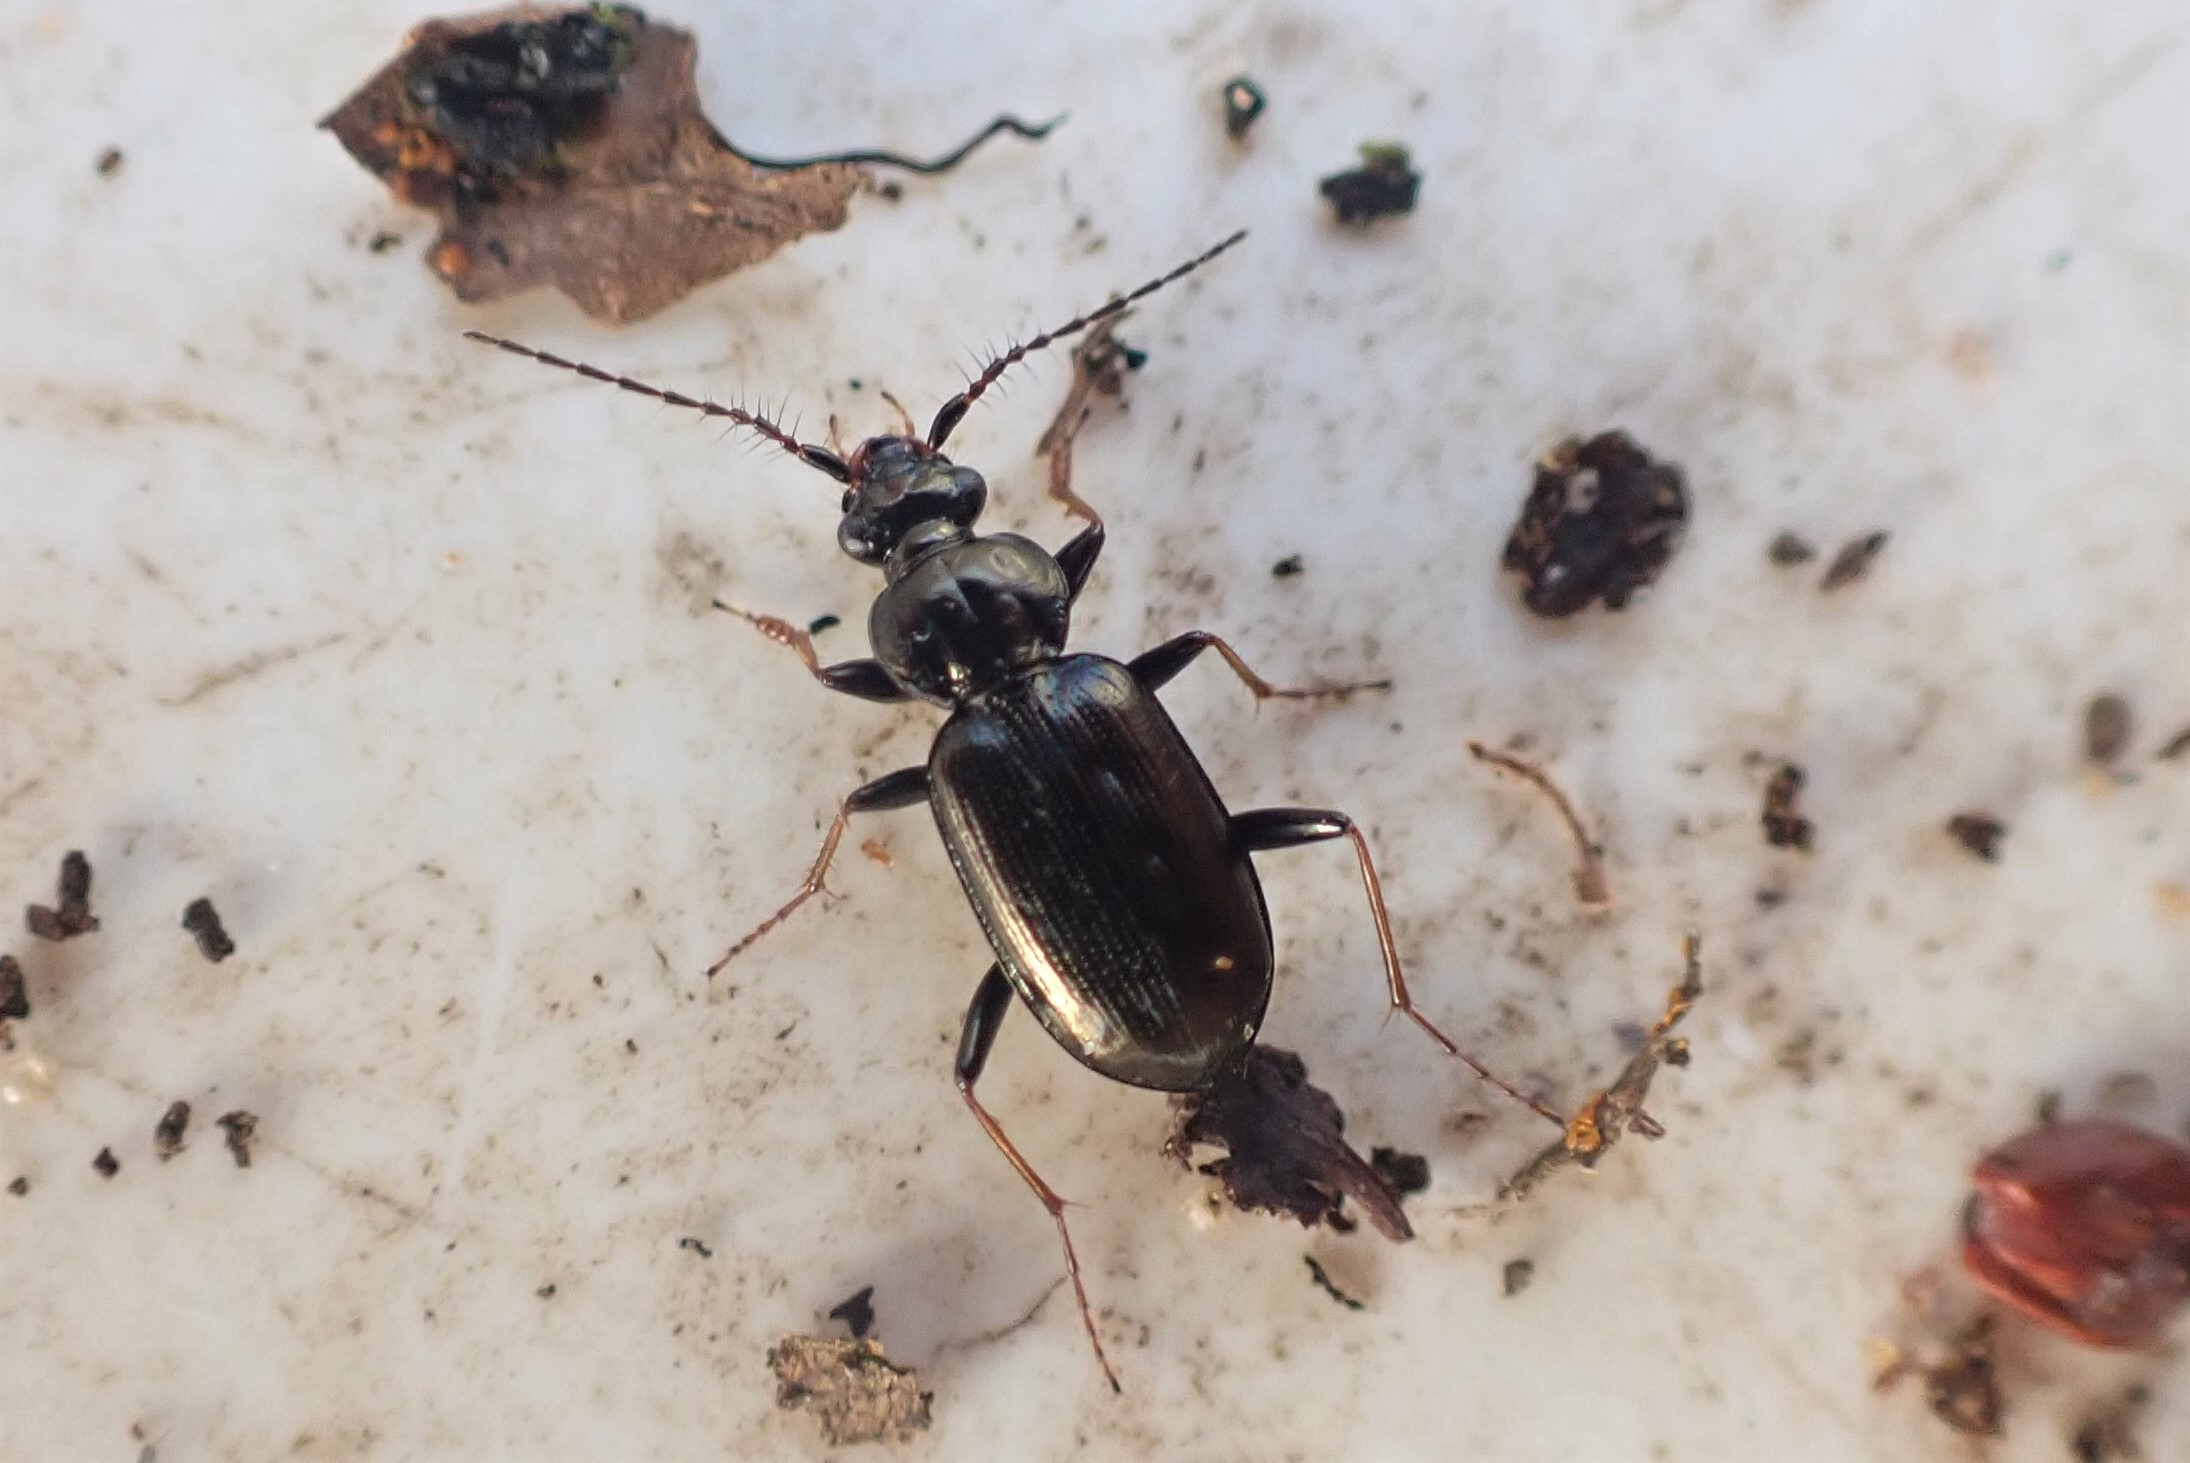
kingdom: Animalia
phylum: Arthropoda
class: Insecta
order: Coleoptera
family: Carabidae
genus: Loricera
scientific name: Loricera pilicornis
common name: Børsteløber
